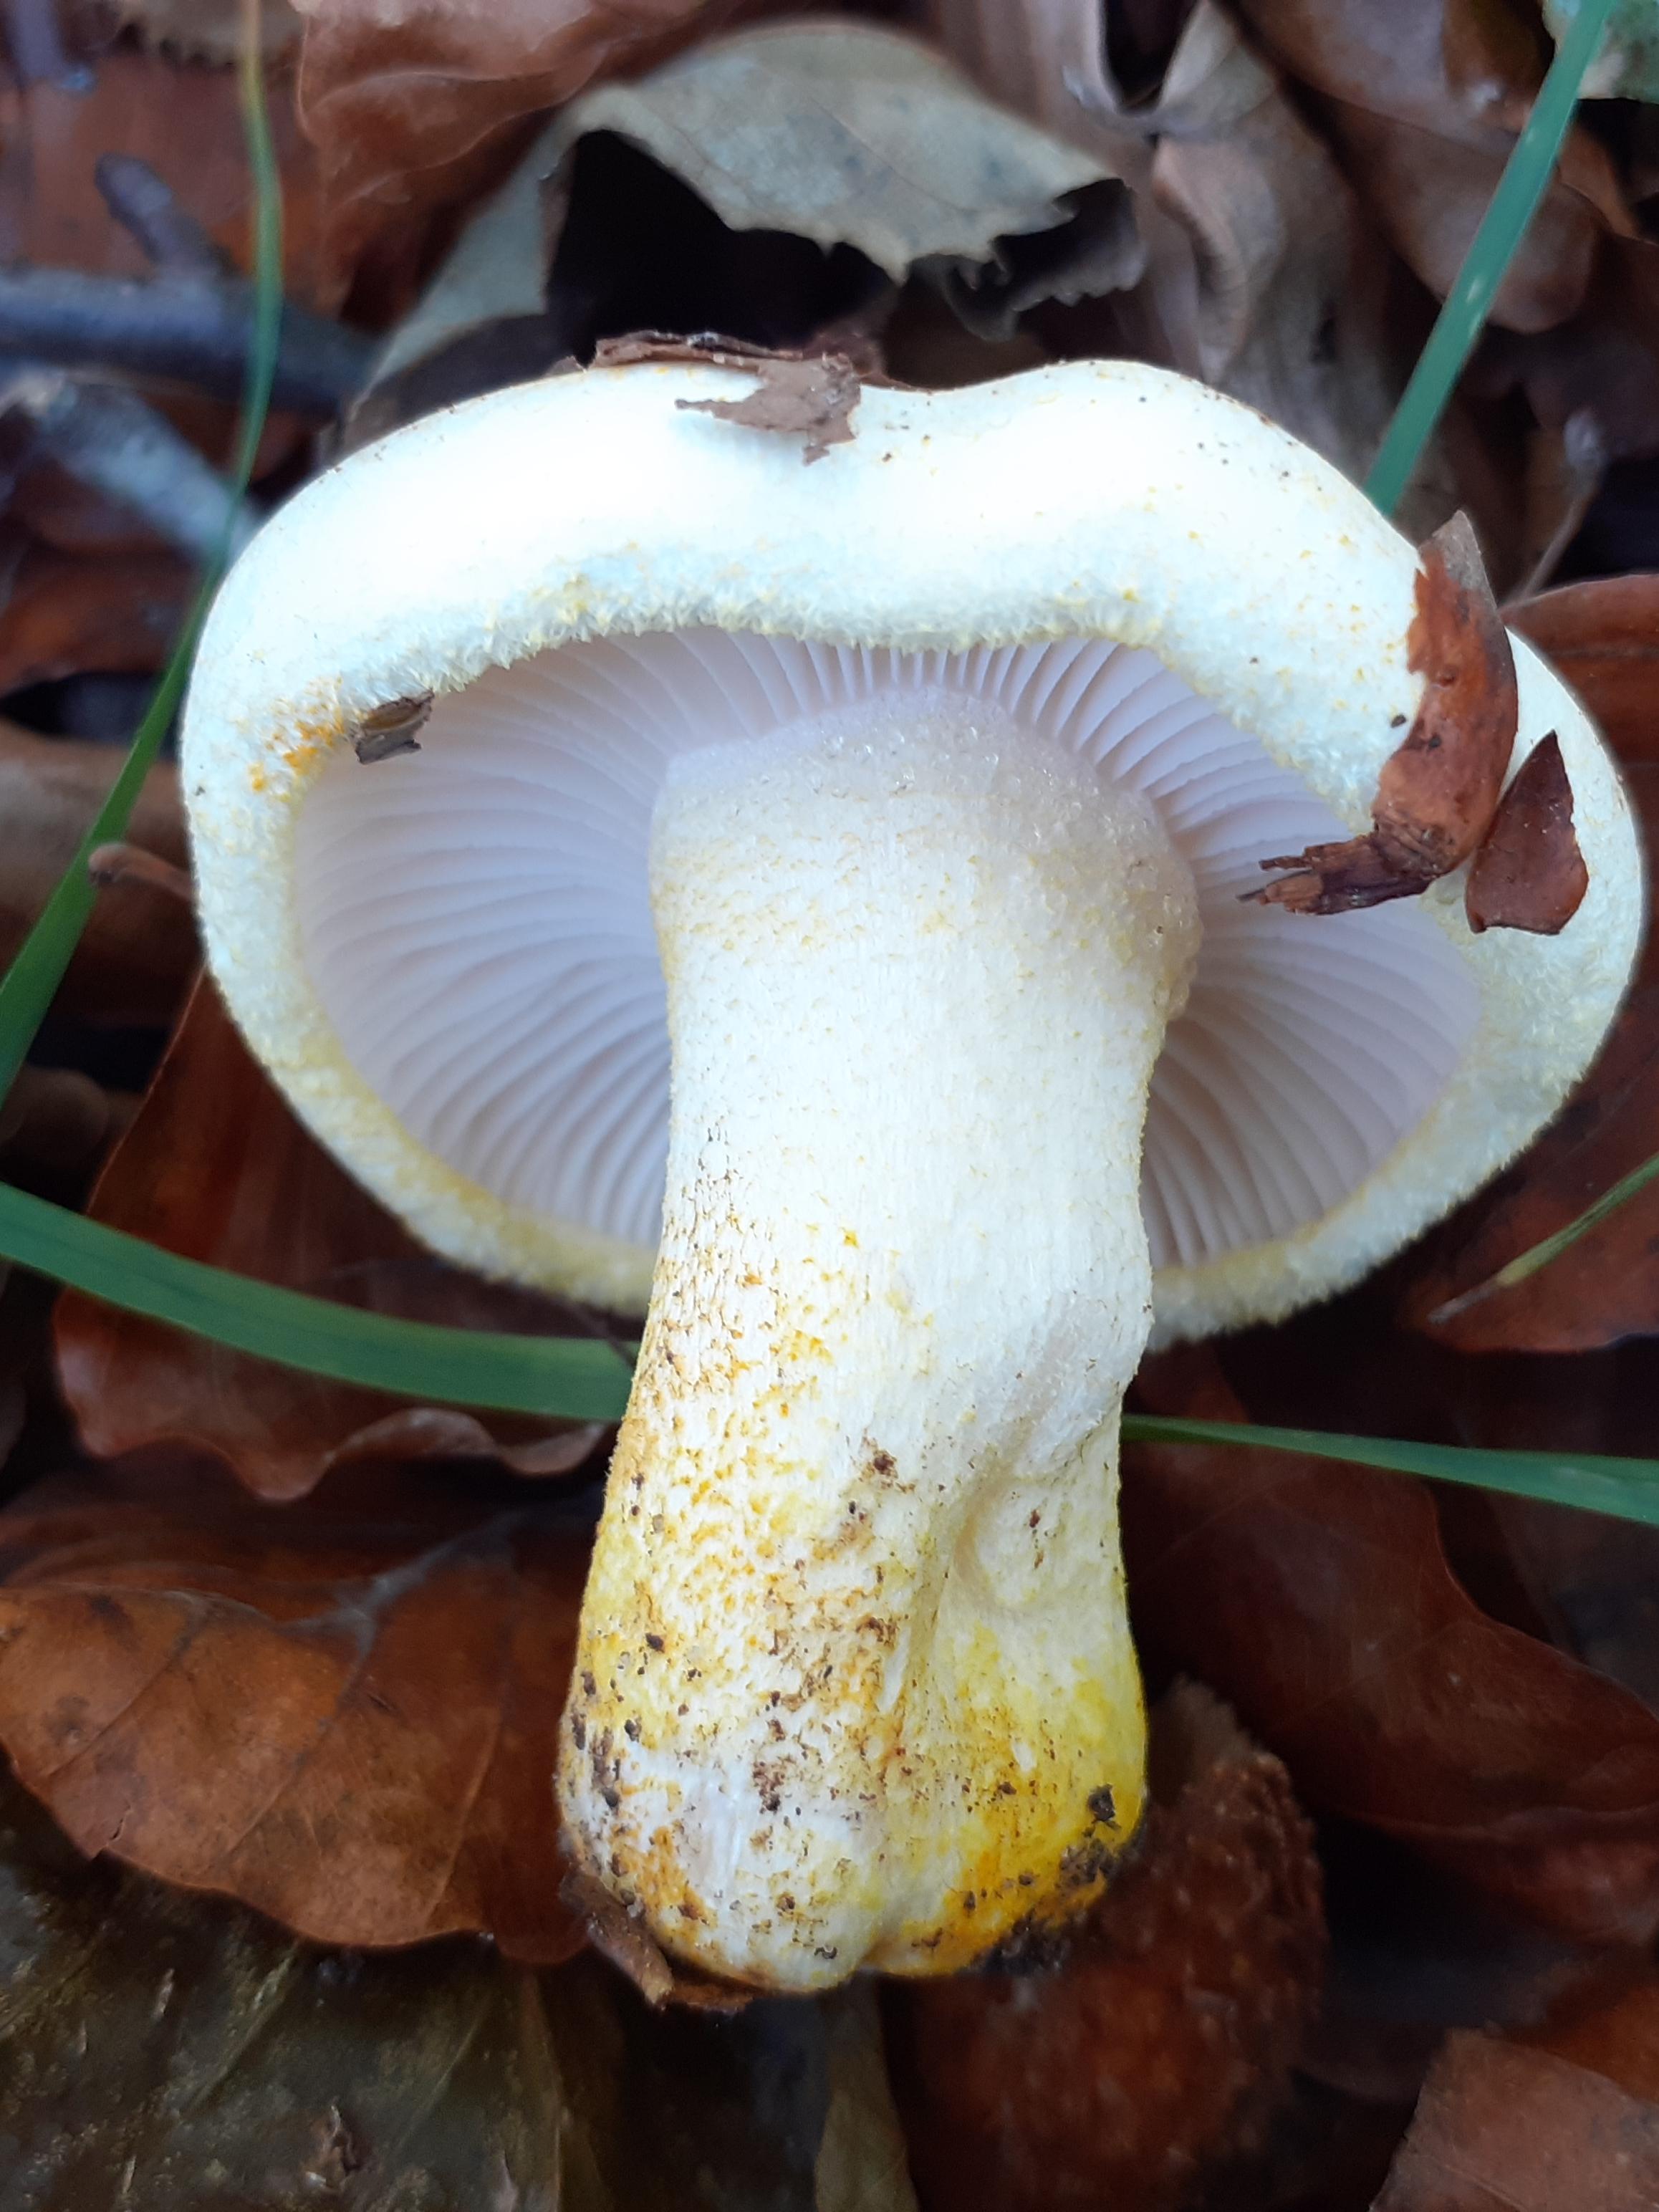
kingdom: Fungi
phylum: Basidiomycota
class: Agaricomycetes
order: Agaricales
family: Hygrophoraceae
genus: Hygrophorus
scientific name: Hygrophorus chrysodon
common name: gulfnugget sneglehat
